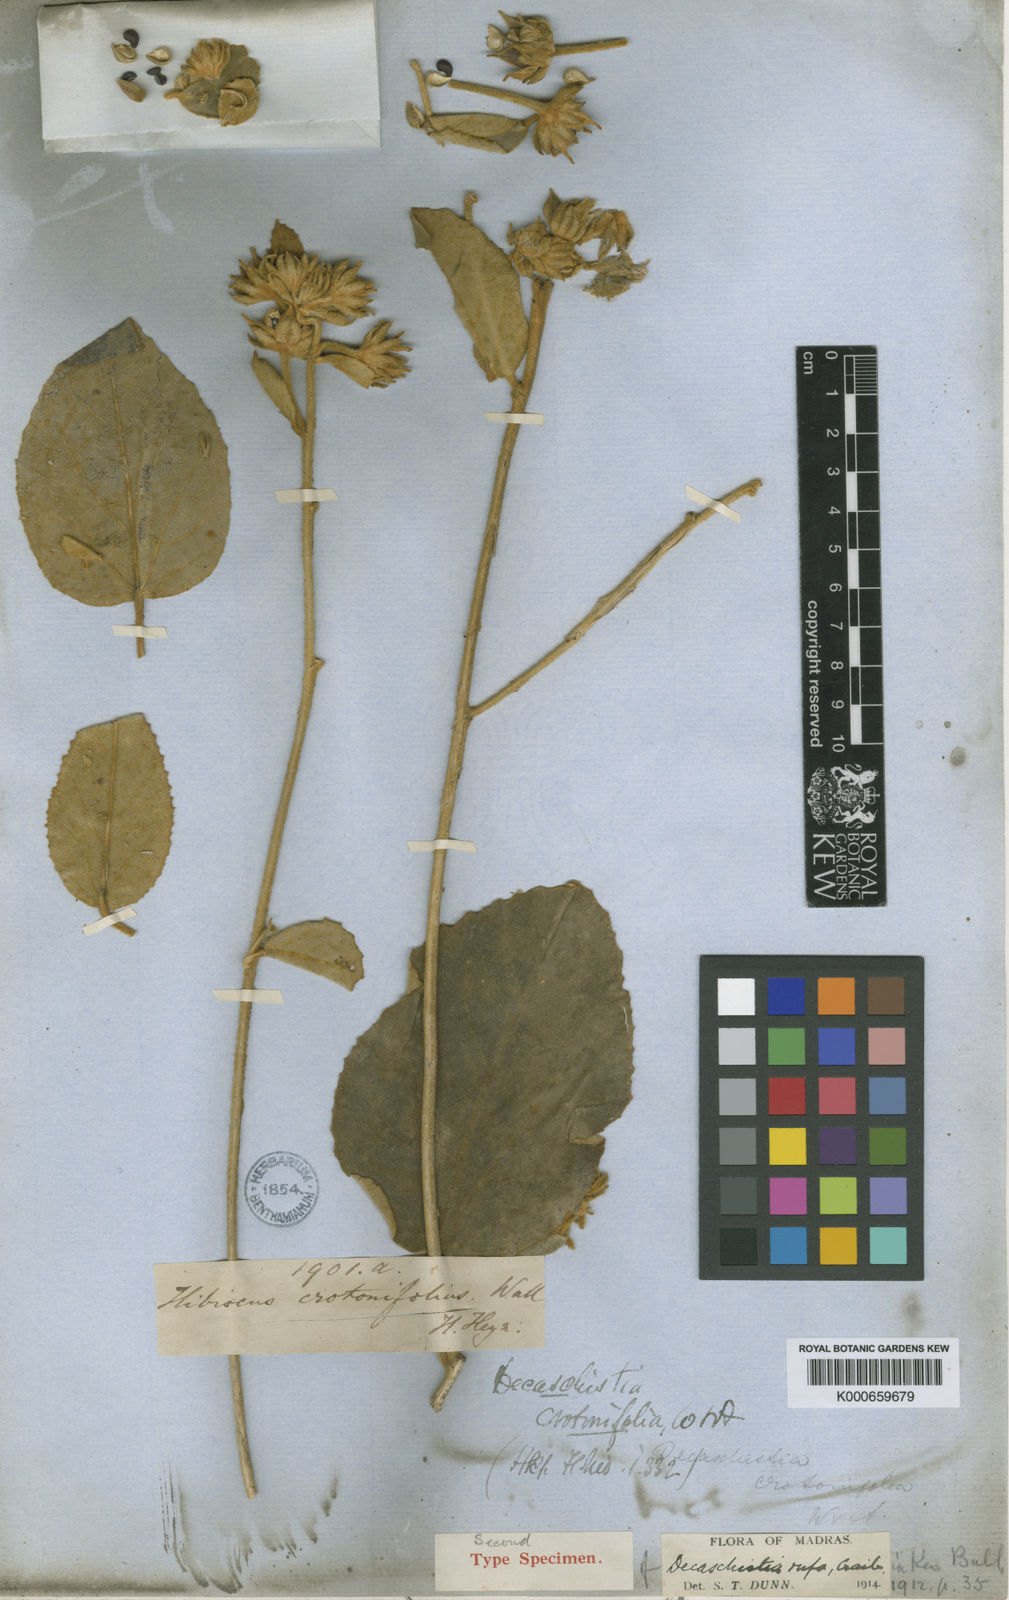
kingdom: Plantae
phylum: Tracheophyta
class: Magnoliopsida
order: Malvales
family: Malvaceae
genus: Decaschistia
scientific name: Decaschistia rufa
